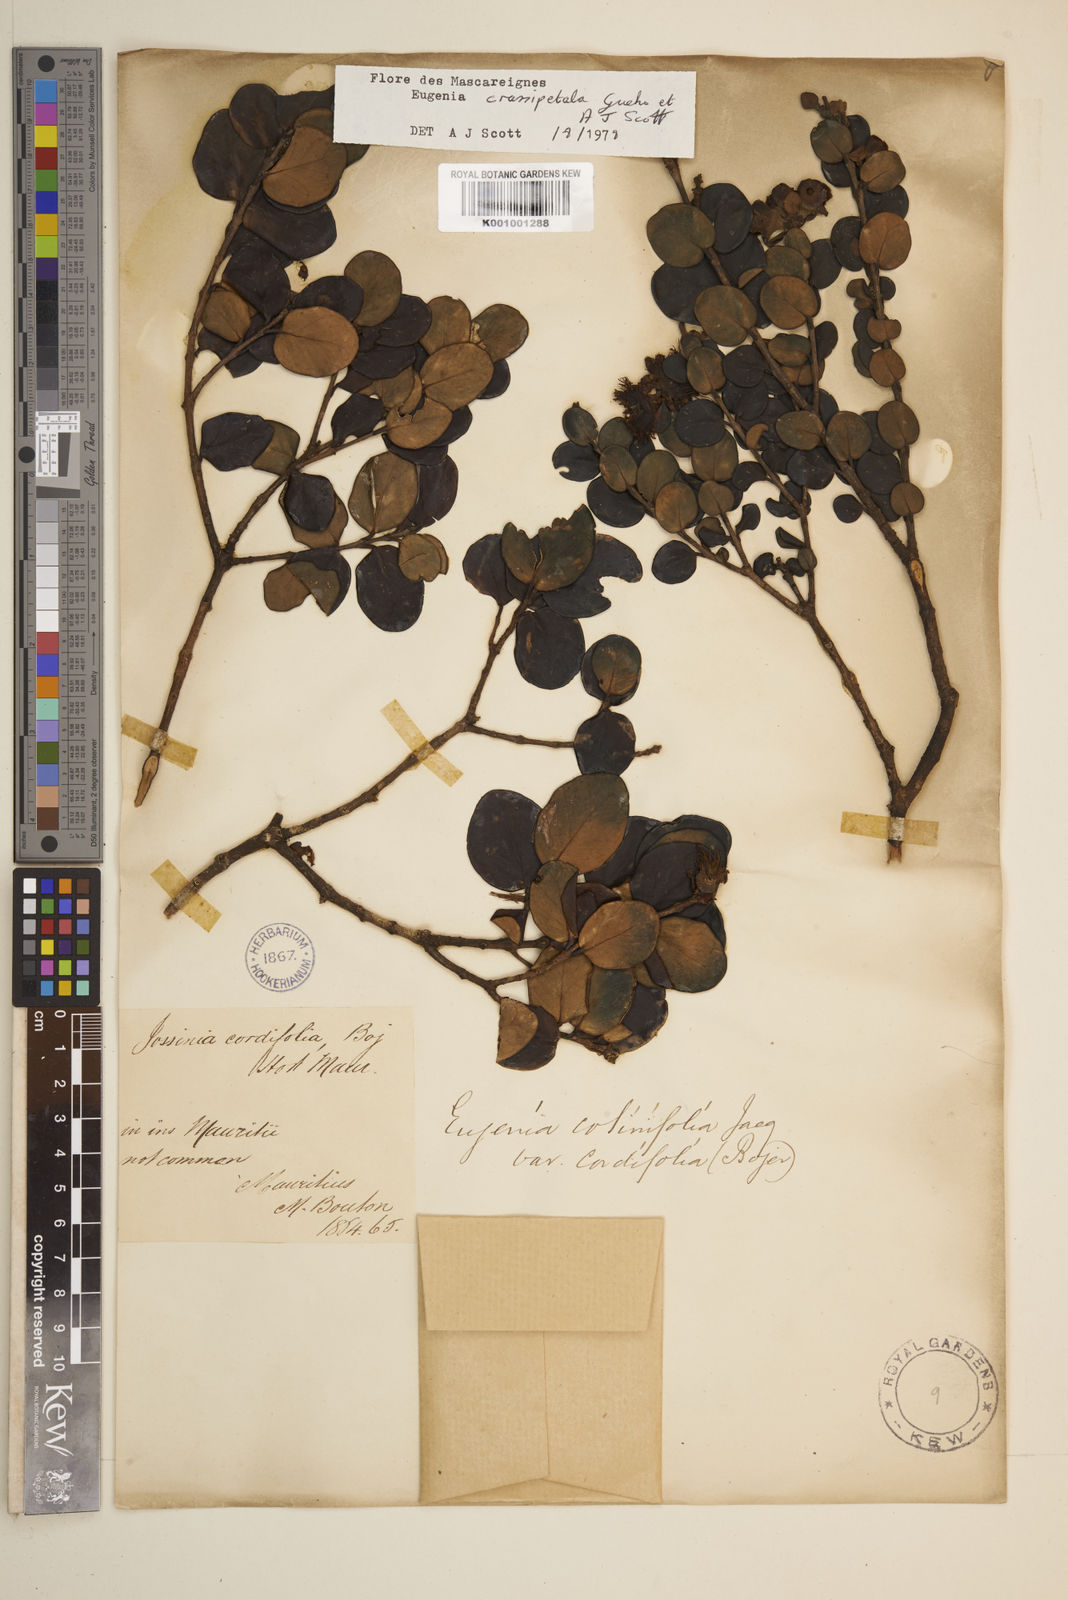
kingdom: Plantae
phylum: Tracheophyta
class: Magnoliopsida
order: Myrtales
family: Myrtaceae
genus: Eugenia
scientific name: Eugenia
